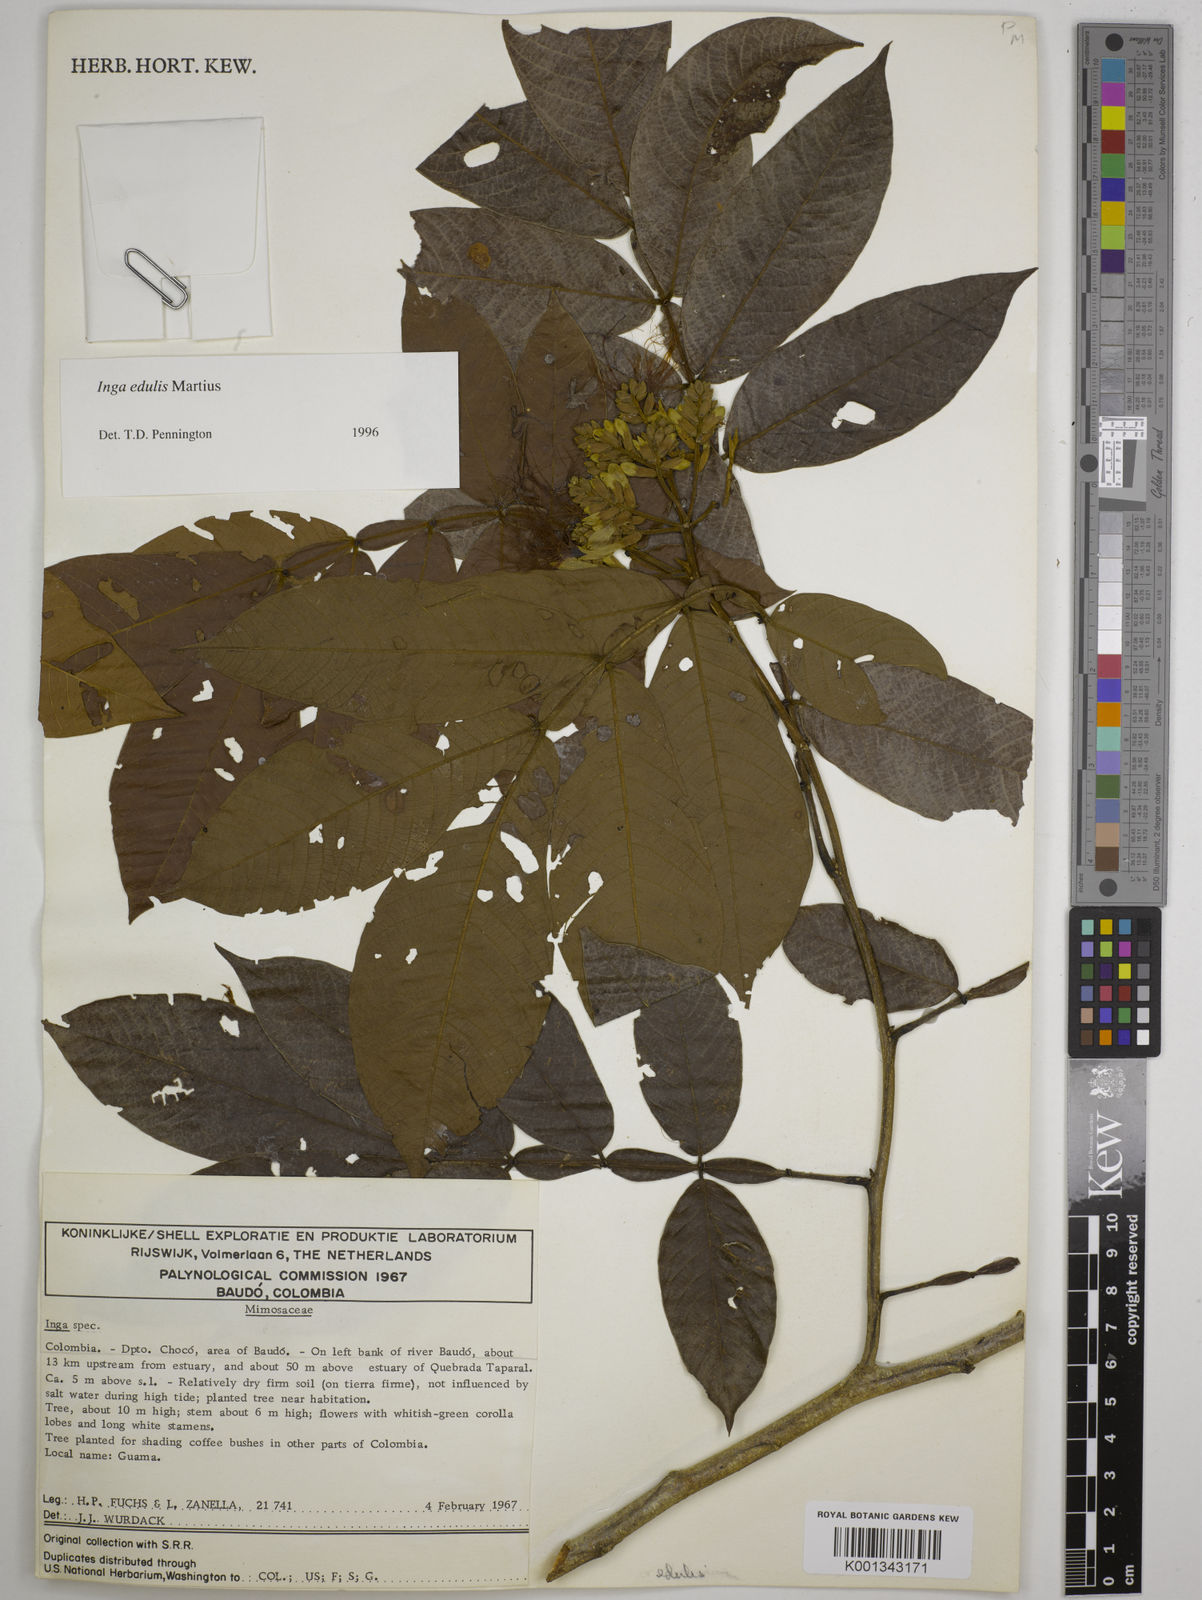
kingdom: Plantae
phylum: Tracheophyta
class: Magnoliopsida
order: Fabales
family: Fabaceae
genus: Inga
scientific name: Inga edulis
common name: Ice cream bean
